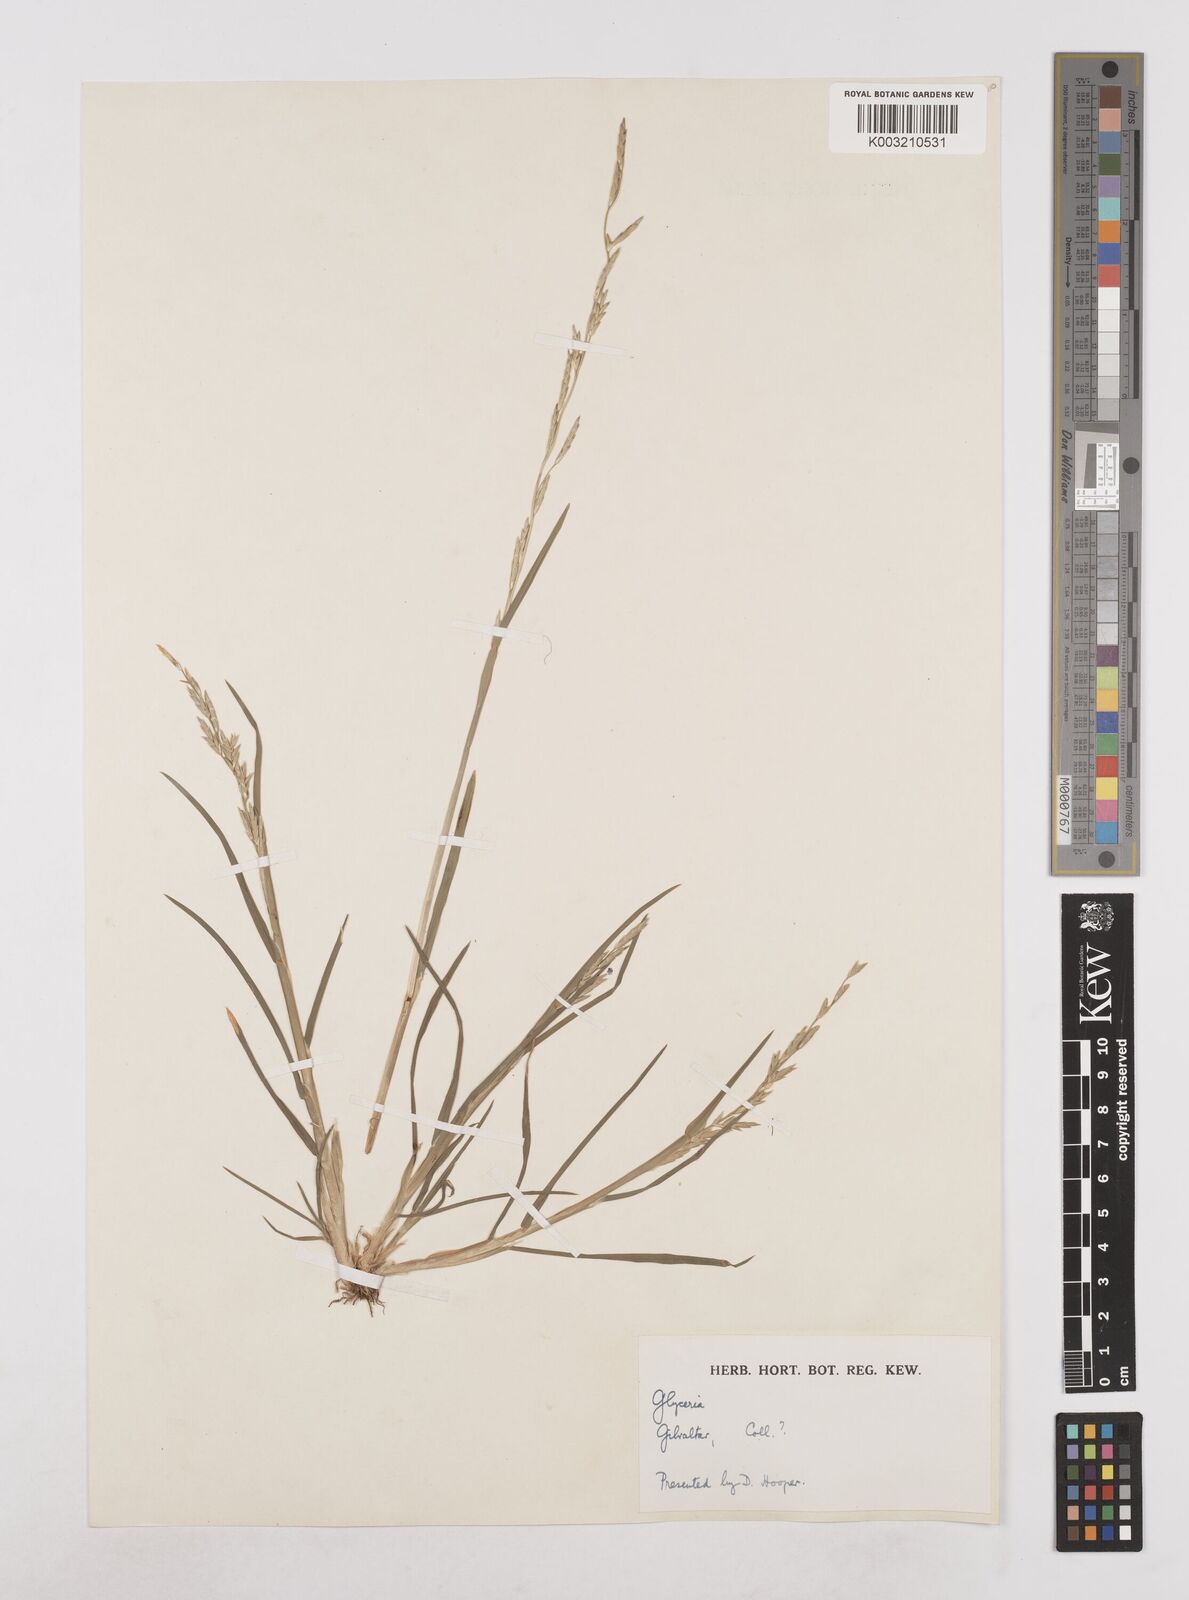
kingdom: Plantae
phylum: Tracheophyta
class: Liliopsida
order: Poales
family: Poaceae
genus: Glyceria
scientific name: Glyceria declinata
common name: Small sweet-grass
